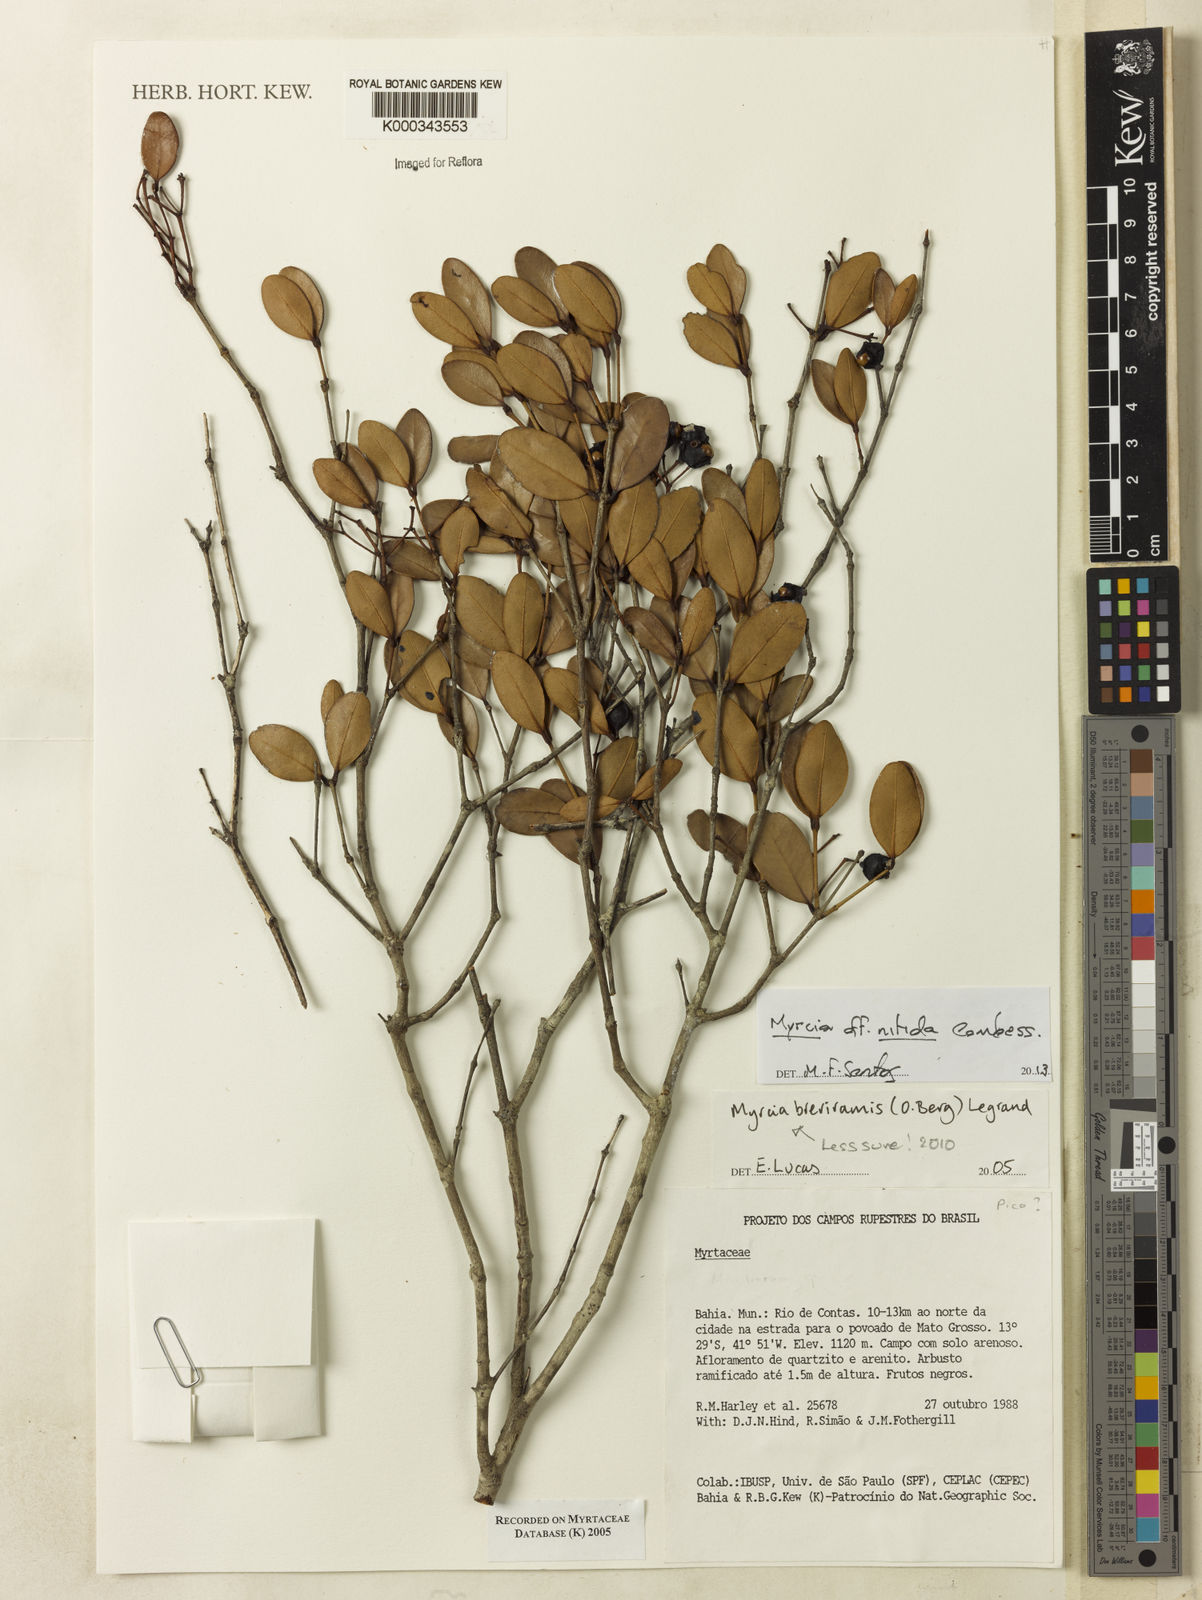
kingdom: Plantae
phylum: Tracheophyta
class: Magnoliopsida
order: Myrtales
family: Myrtaceae
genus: Myrcia
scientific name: Myrcia pulchra
